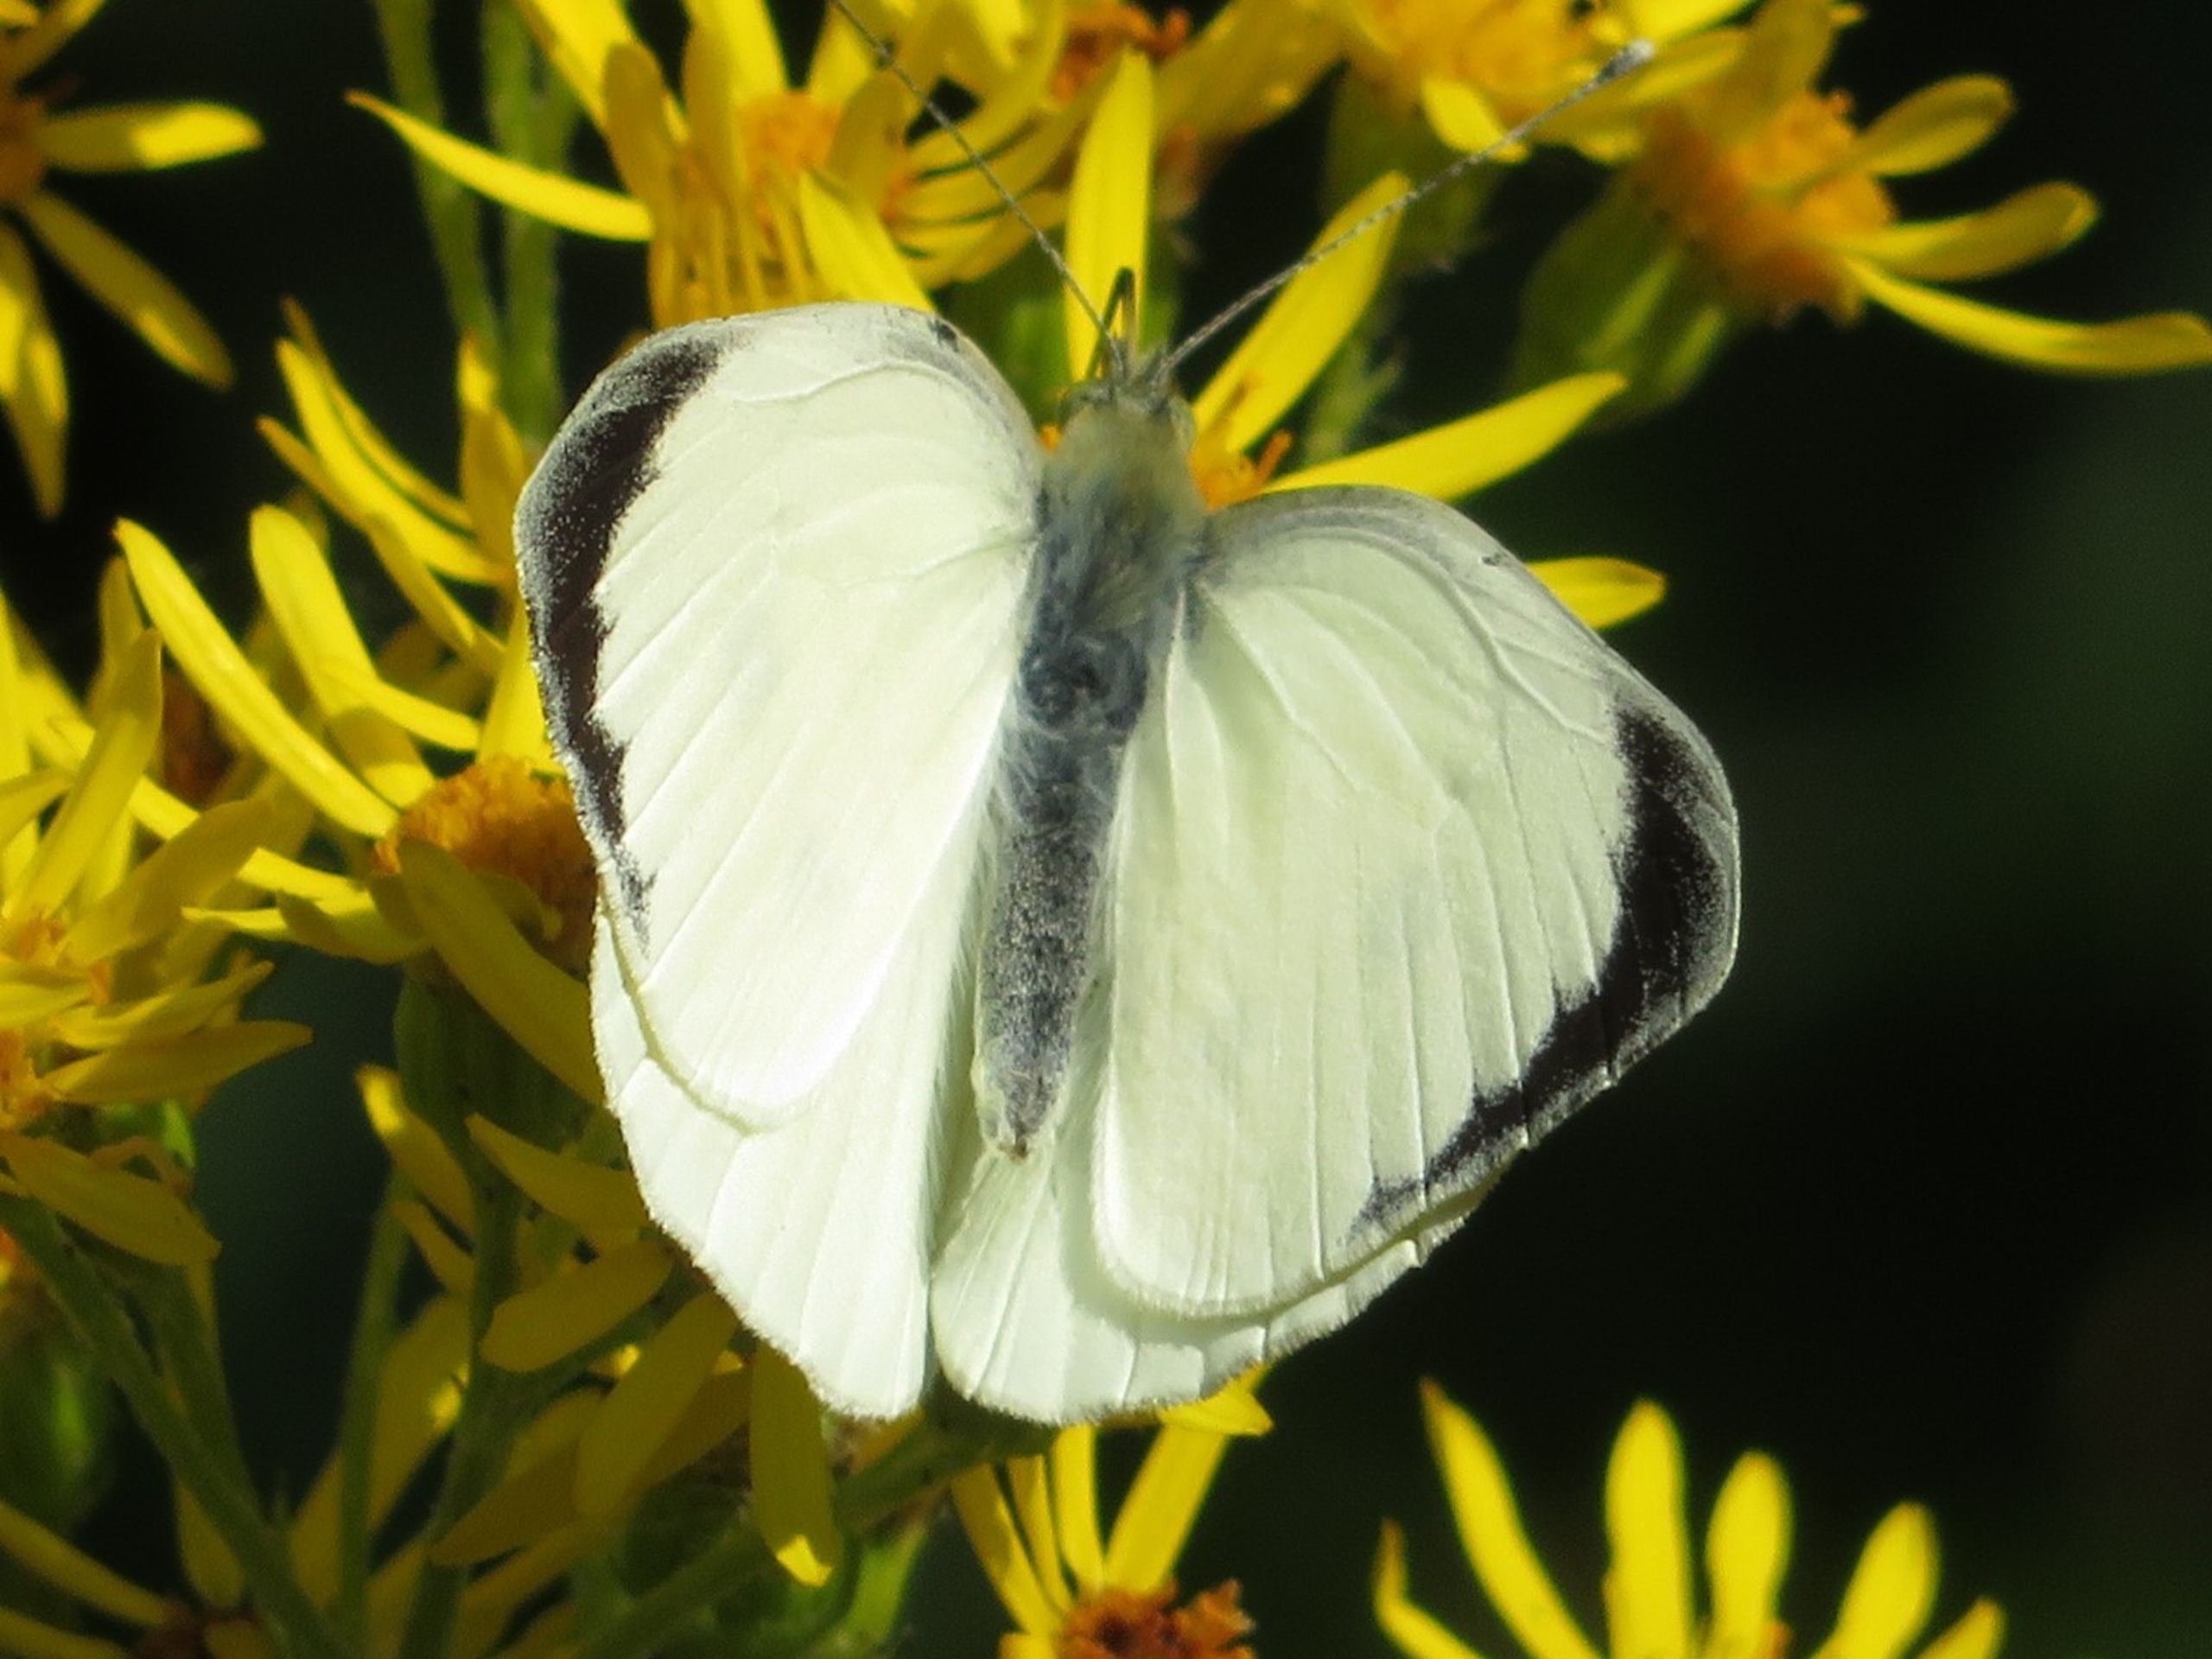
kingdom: Animalia
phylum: Arthropoda
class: Insecta
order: Lepidoptera
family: Pieridae
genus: Pieris
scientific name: Pieris brassicae
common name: Stor kålsommerfugl
